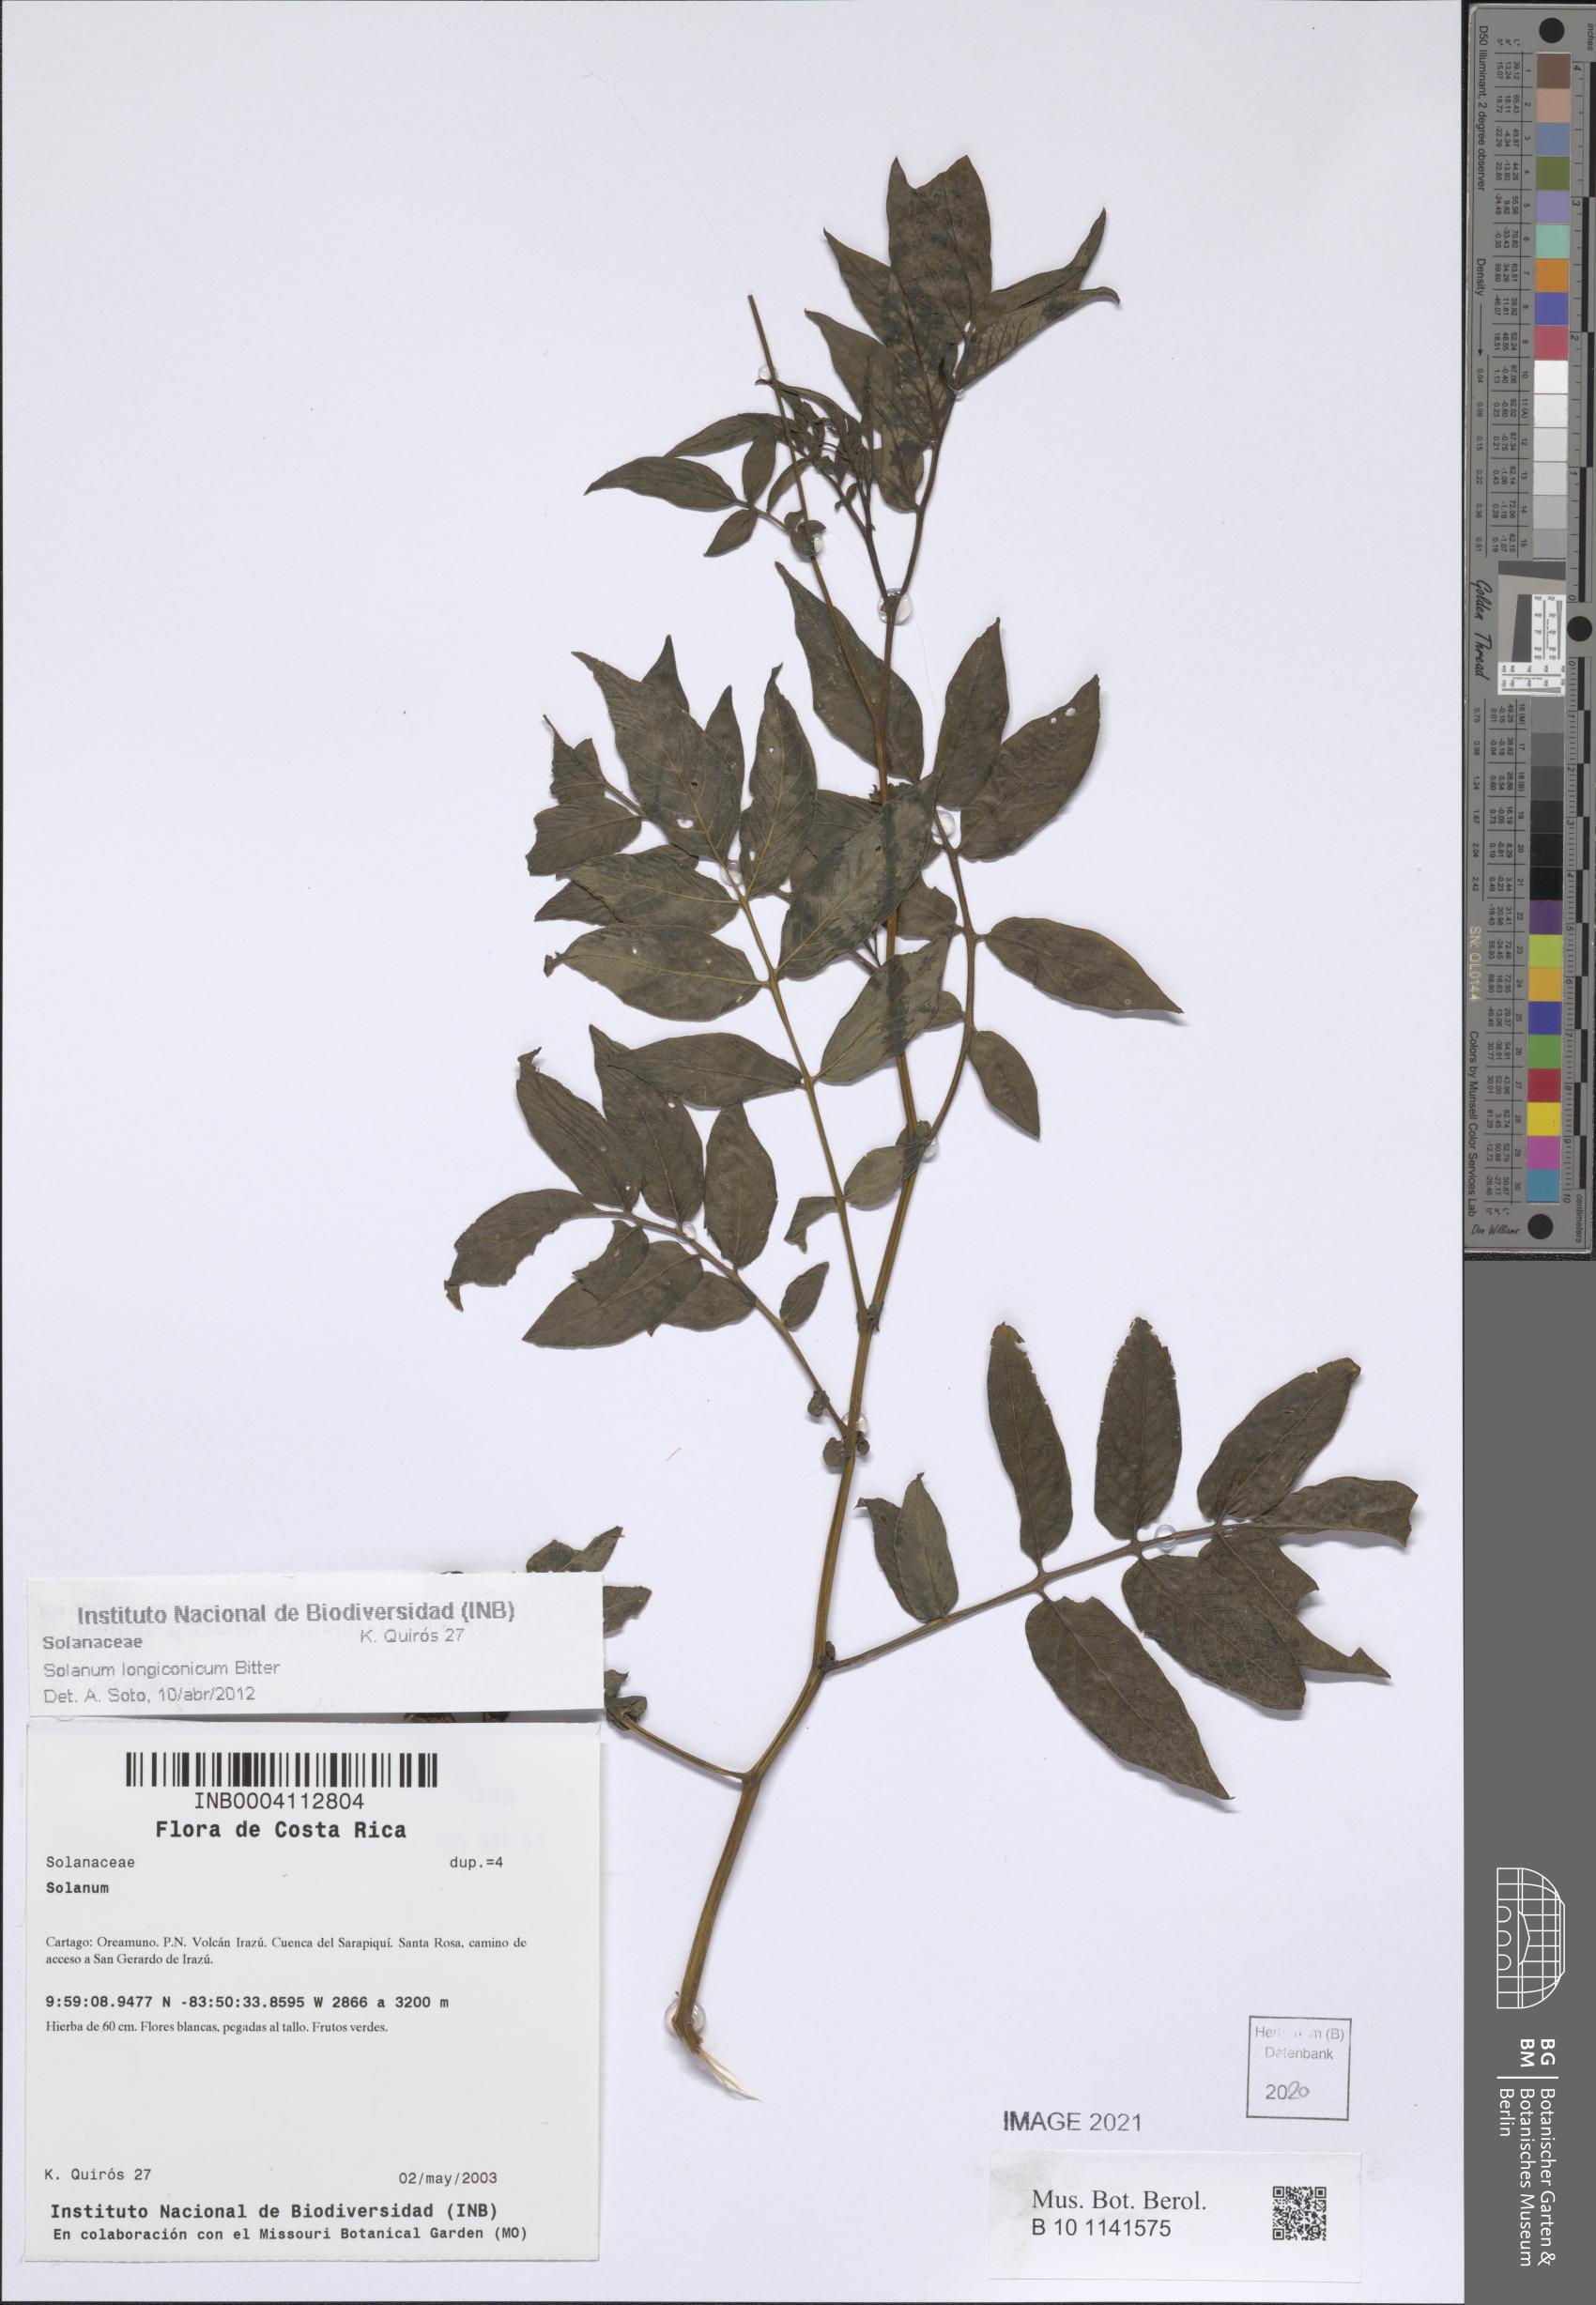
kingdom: Plantae
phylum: Tracheophyta
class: Magnoliopsida
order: Solanales
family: Solanaceae
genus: Solanum
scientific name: Solanum longiconicum
